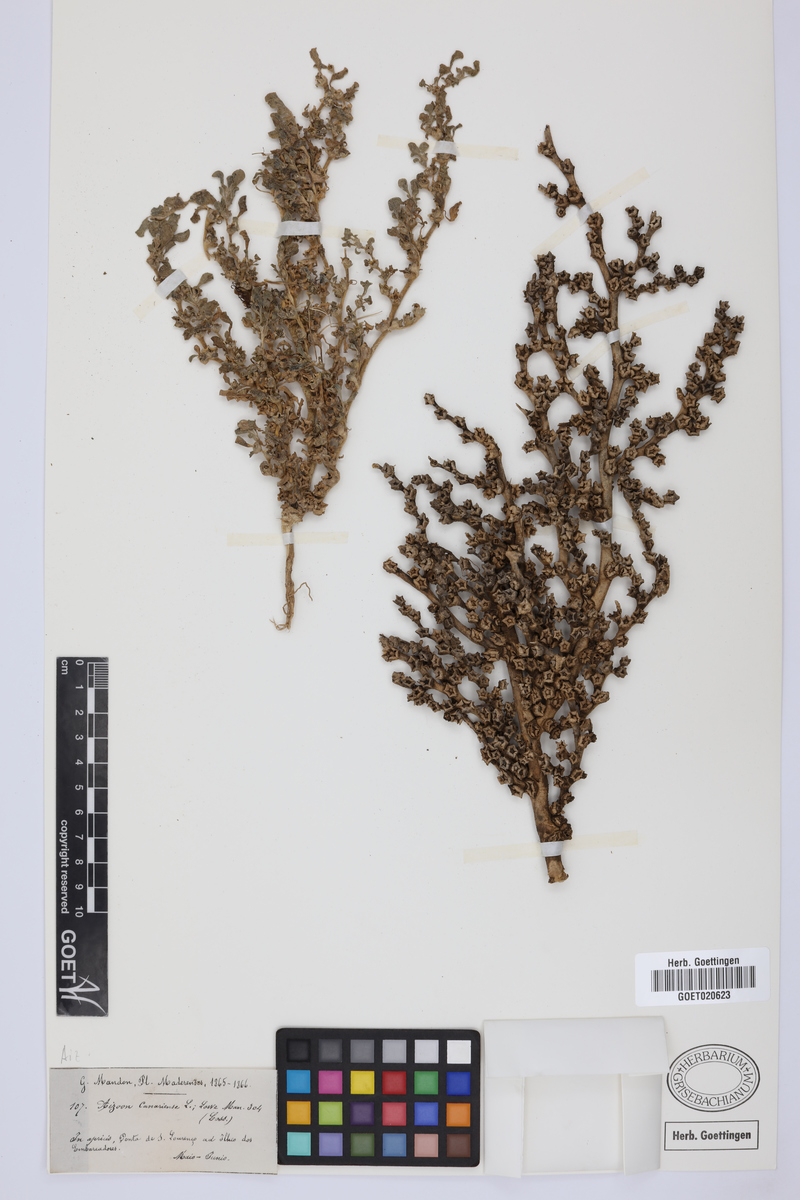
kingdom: Plantae
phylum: Tracheophyta
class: Magnoliopsida
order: Caryophyllales
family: Aizoaceae
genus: Aizoon
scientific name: Aizoon canariense
